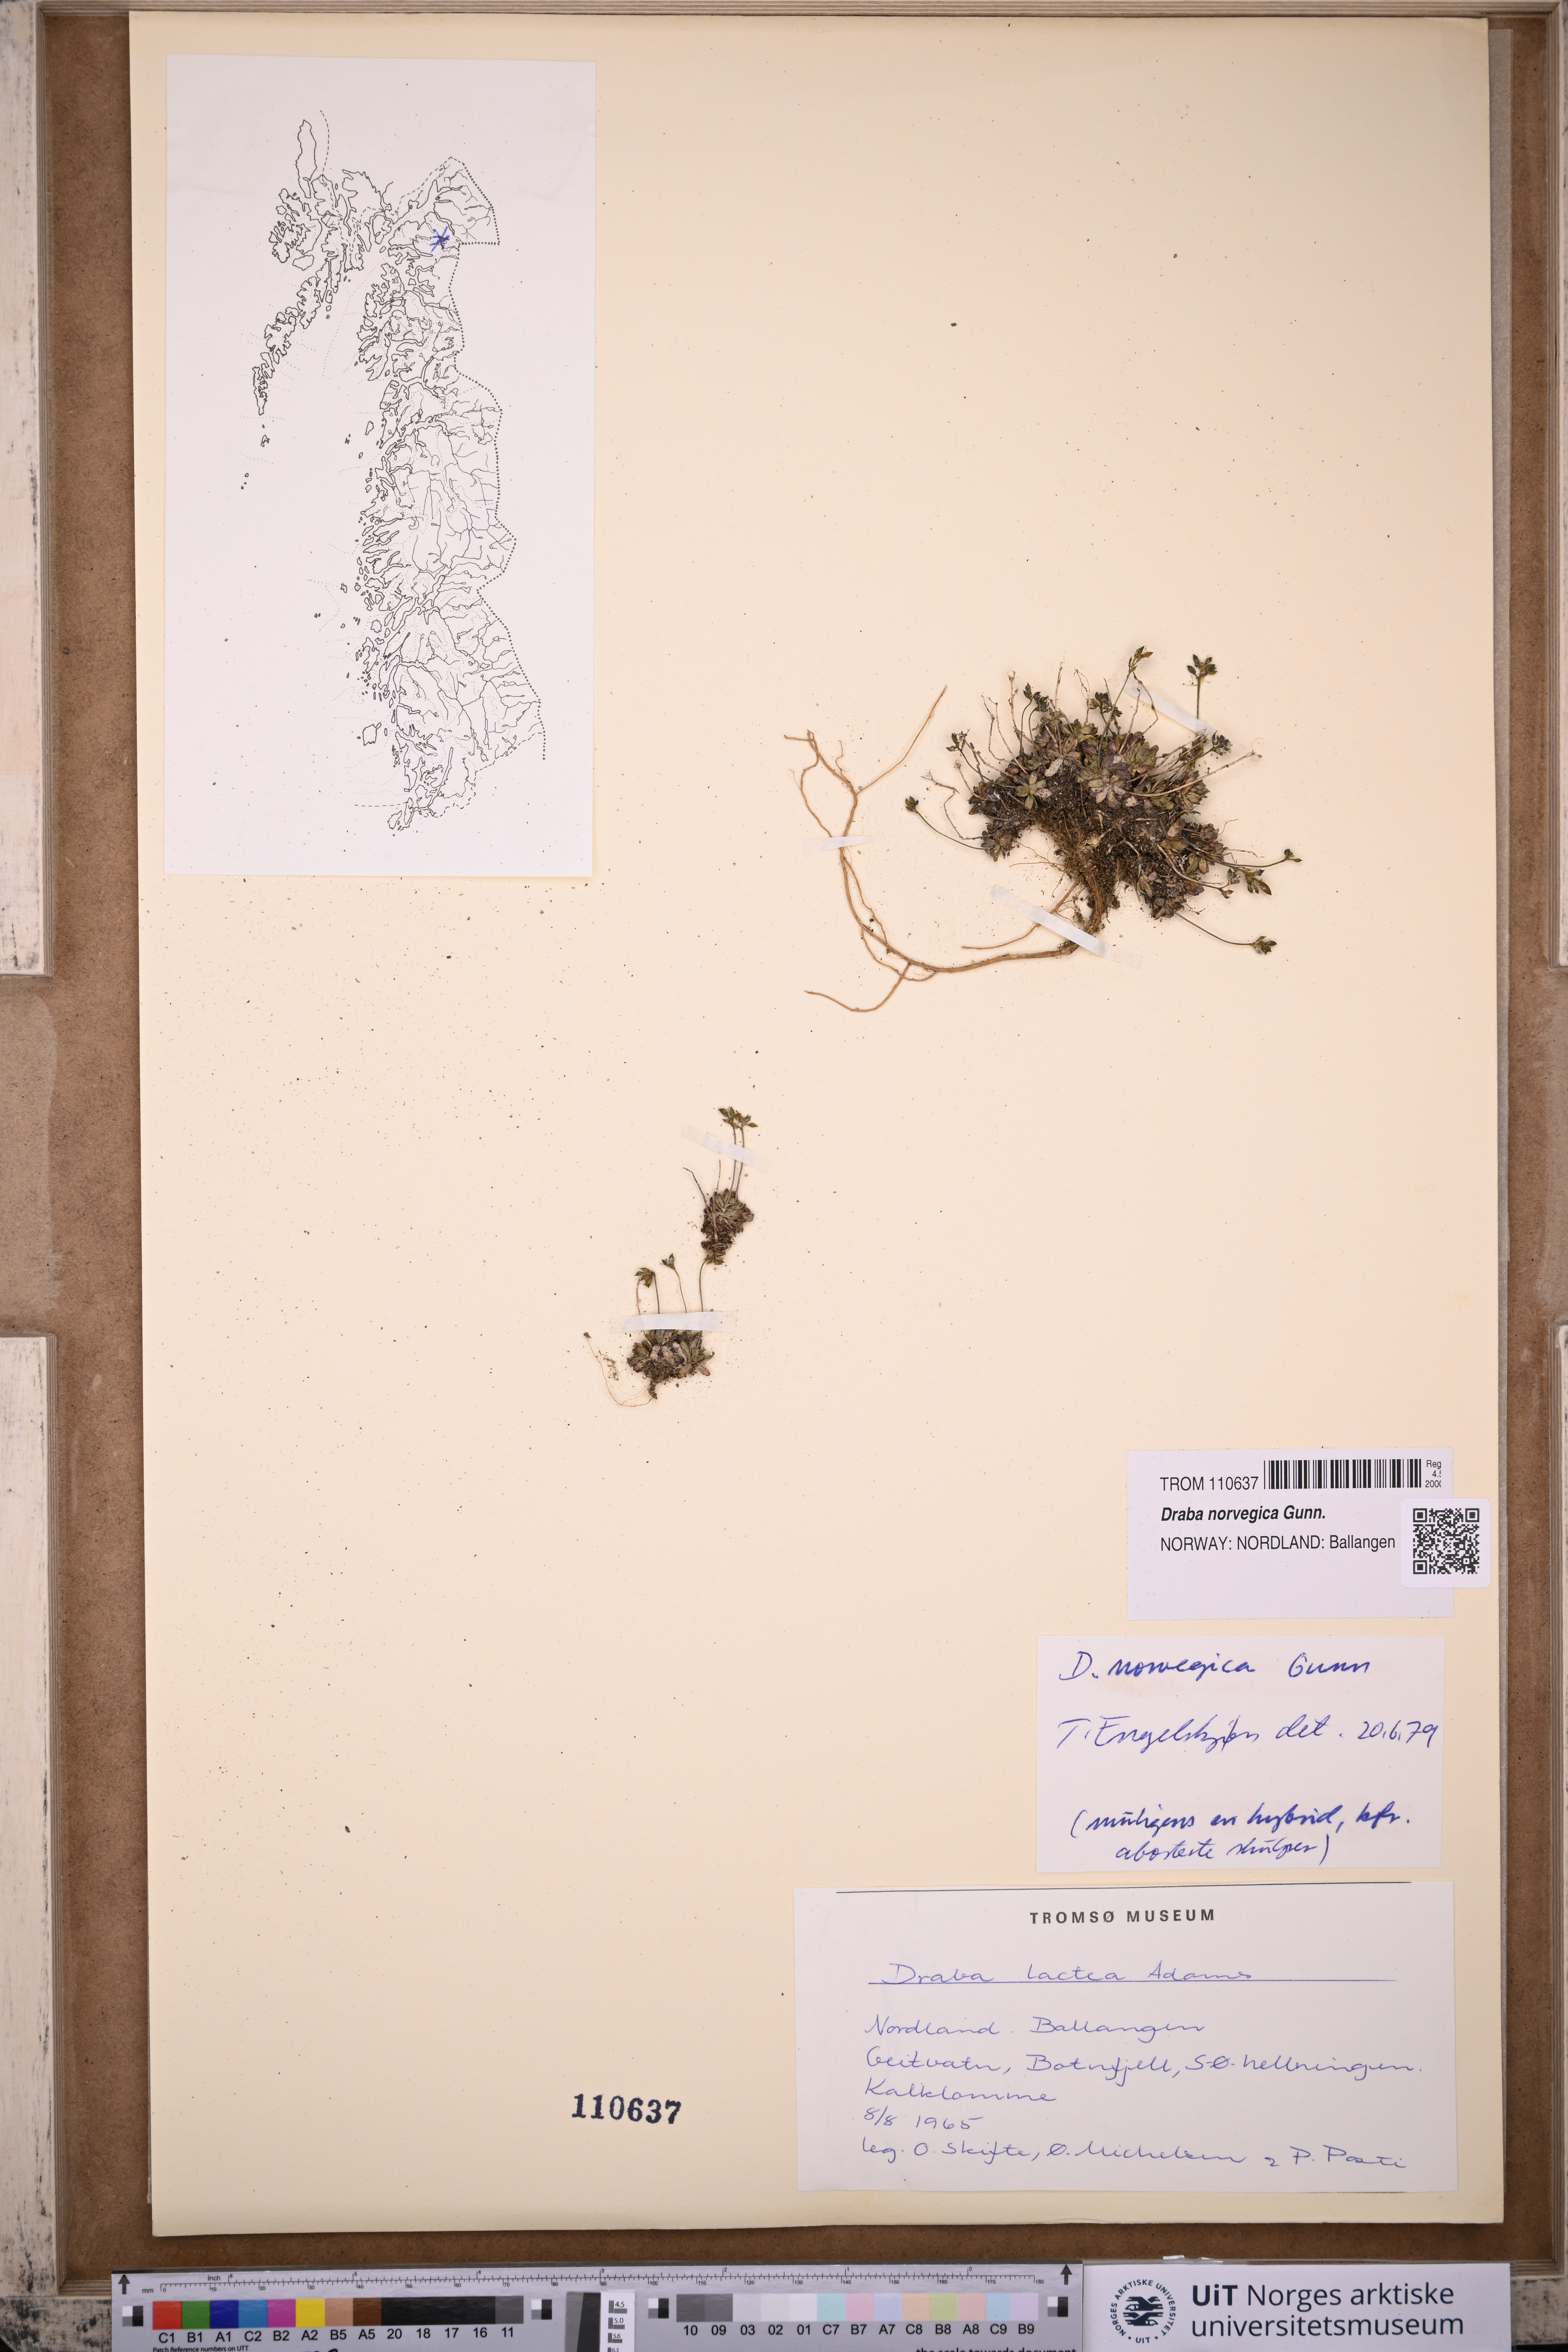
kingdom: Plantae
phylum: Tracheophyta
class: Magnoliopsida
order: Brassicales
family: Brassicaceae
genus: Draba
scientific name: Draba norvegica
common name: Rock whitlowgrass
